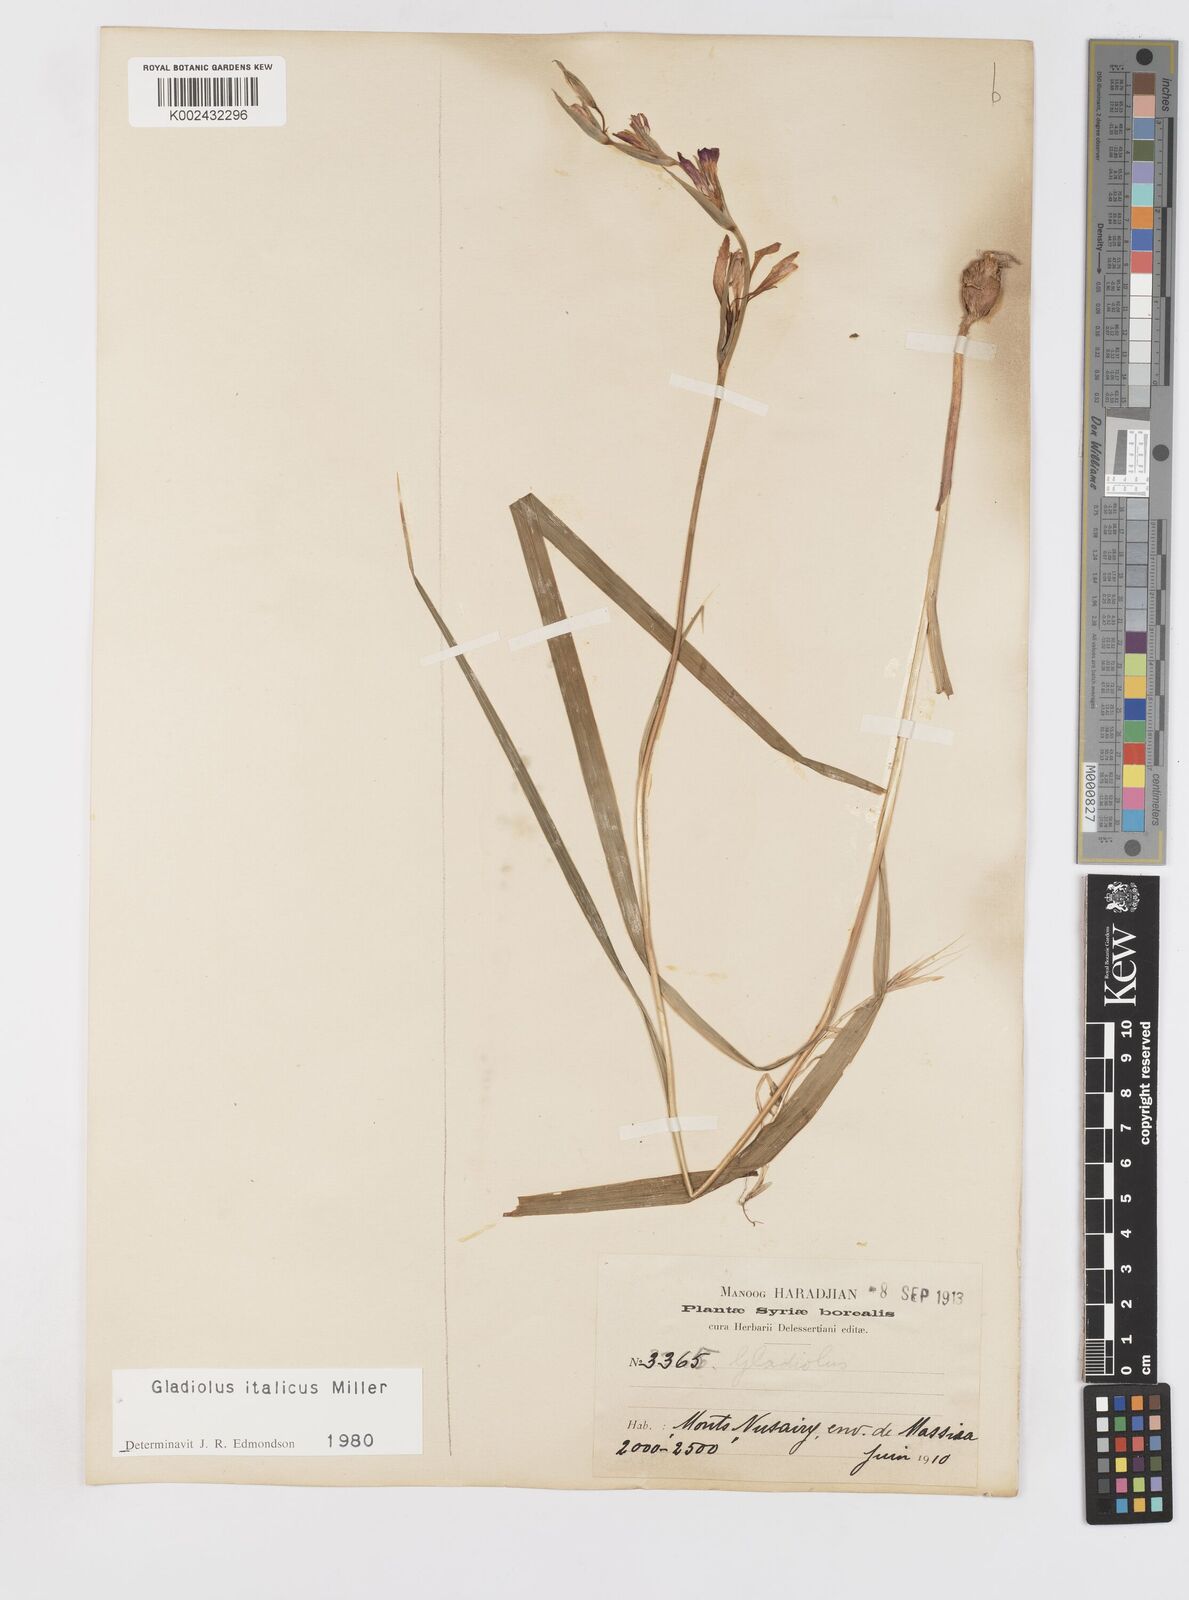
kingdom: Plantae
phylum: Tracheophyta
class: Liliopsida
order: Asparagales
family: Iridaceae
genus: Gladiolus
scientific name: Gladiolus italicus
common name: Field gladiolus
